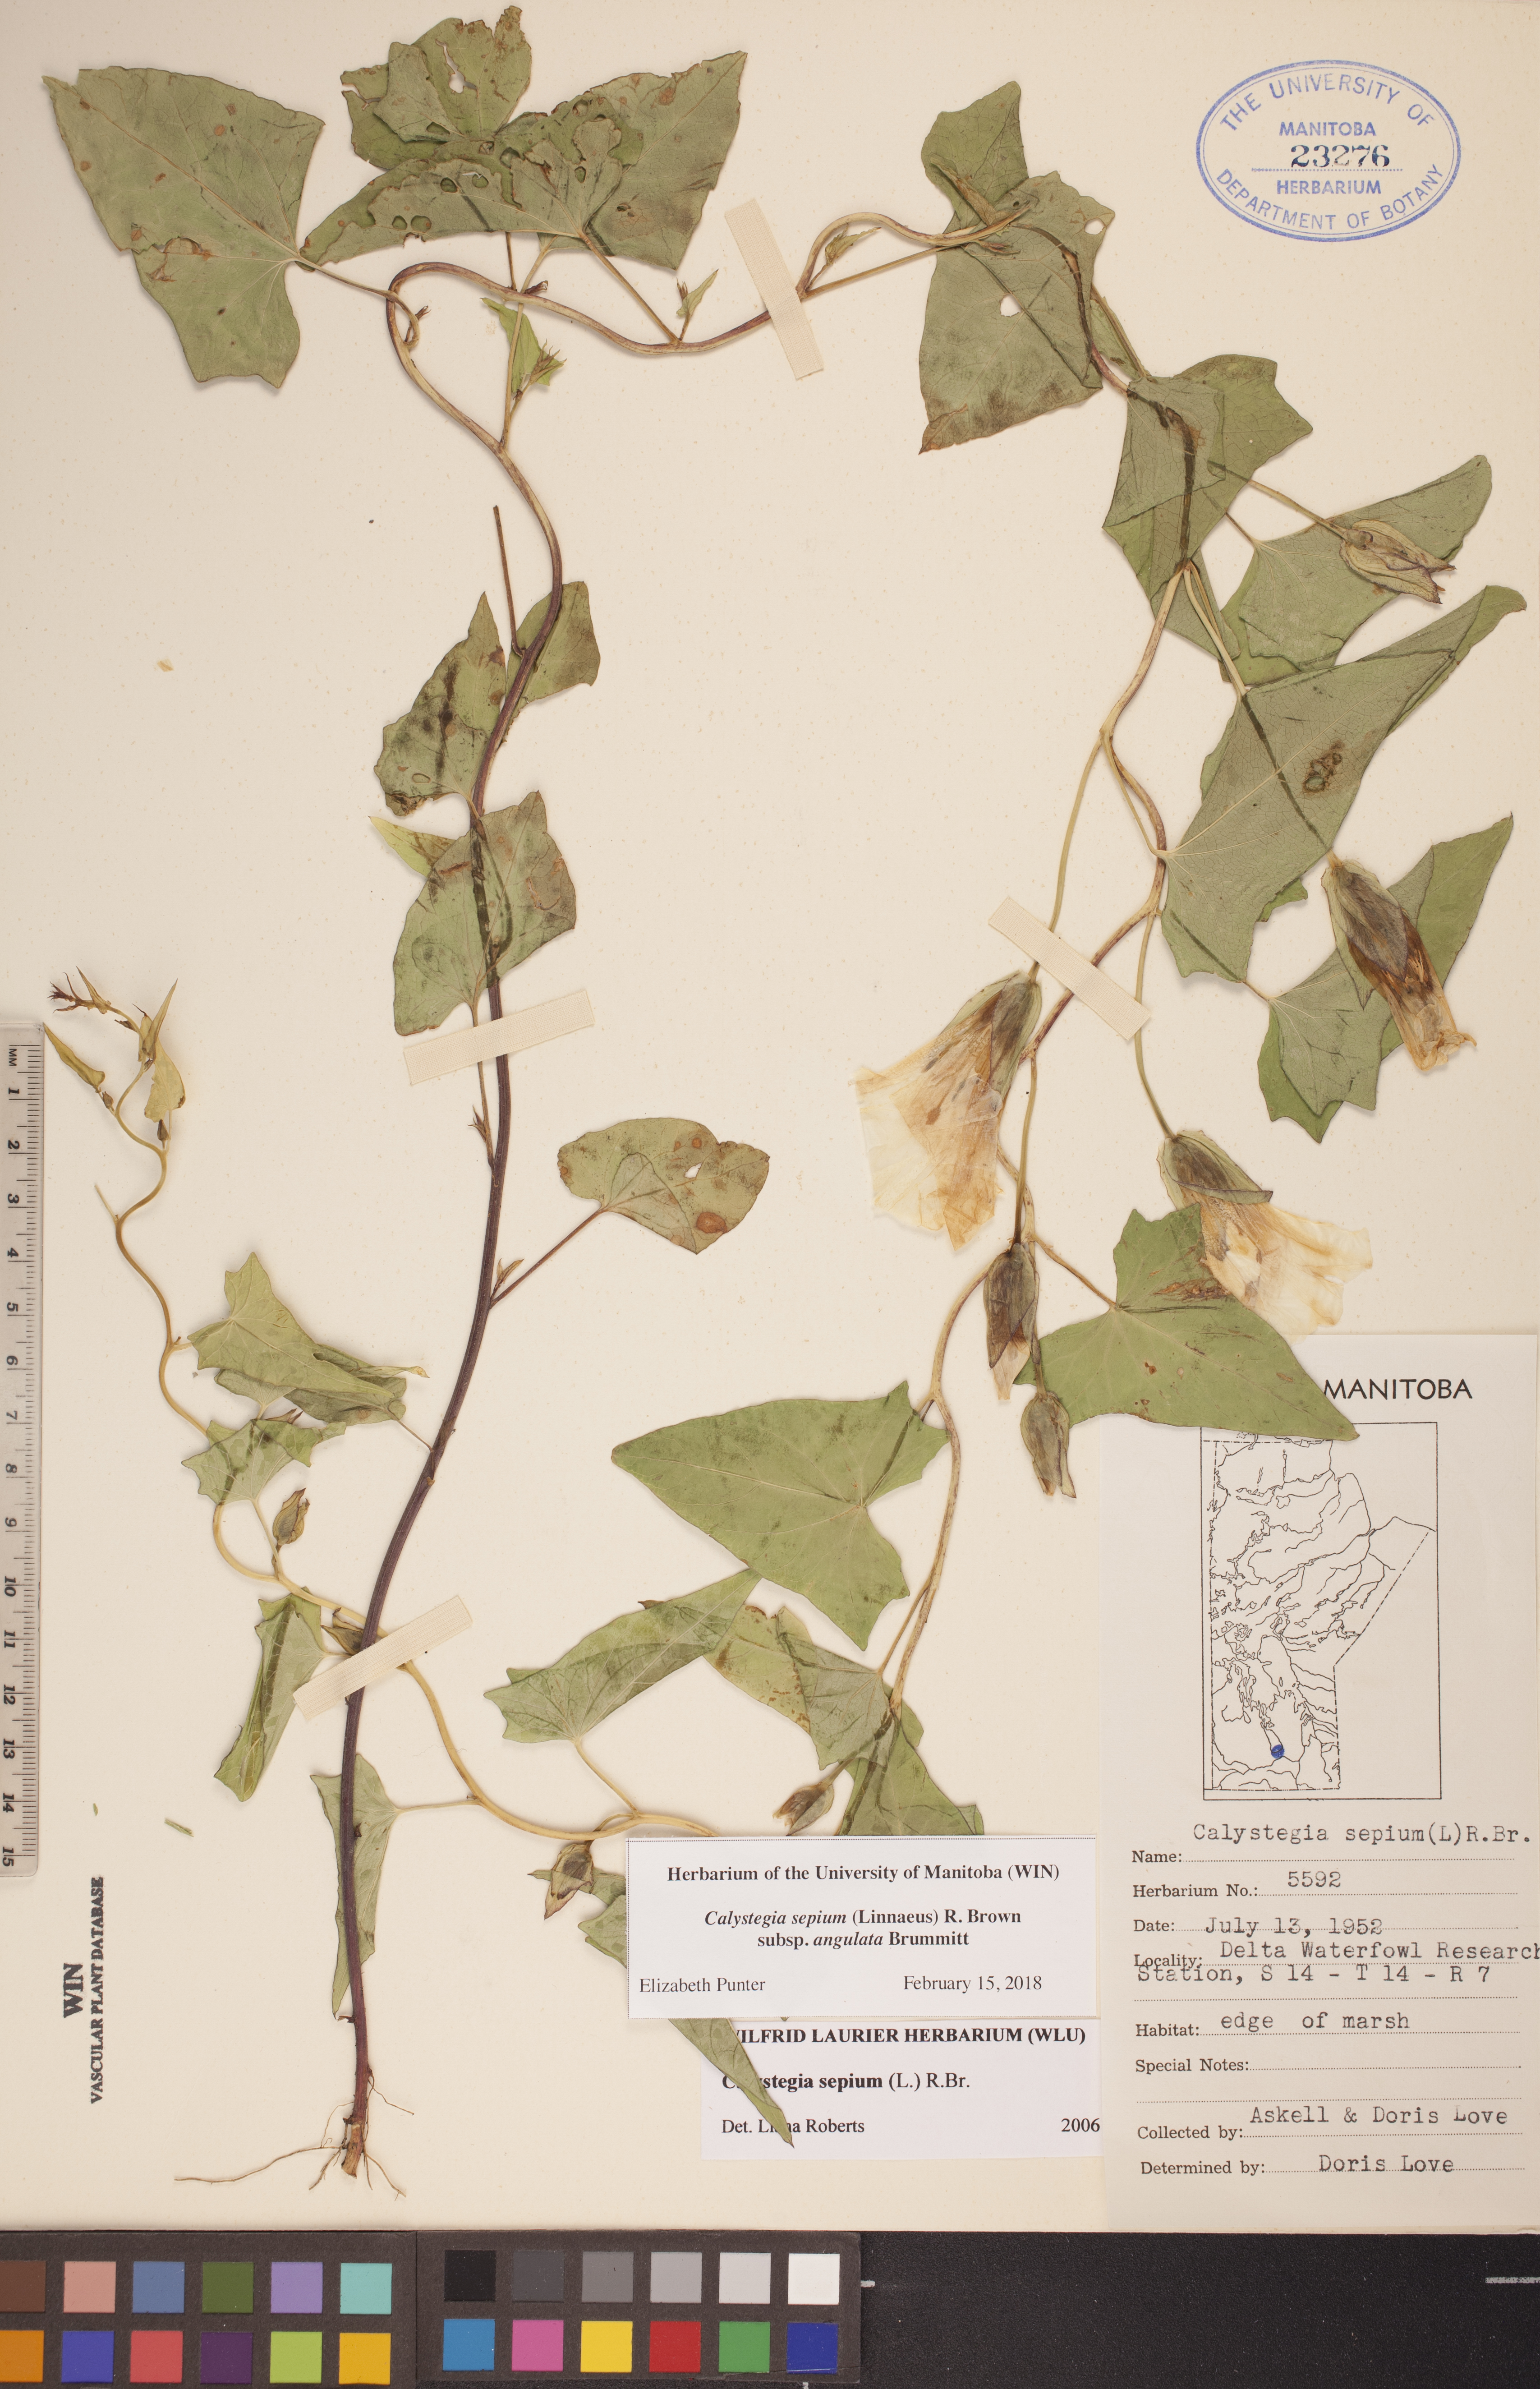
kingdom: Plantae
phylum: Tracheophyta
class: Magnoliopsida
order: Solanales
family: Convolvulaceae
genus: Calystegia
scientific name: Calystegia sepium
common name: Hedge bindweed
